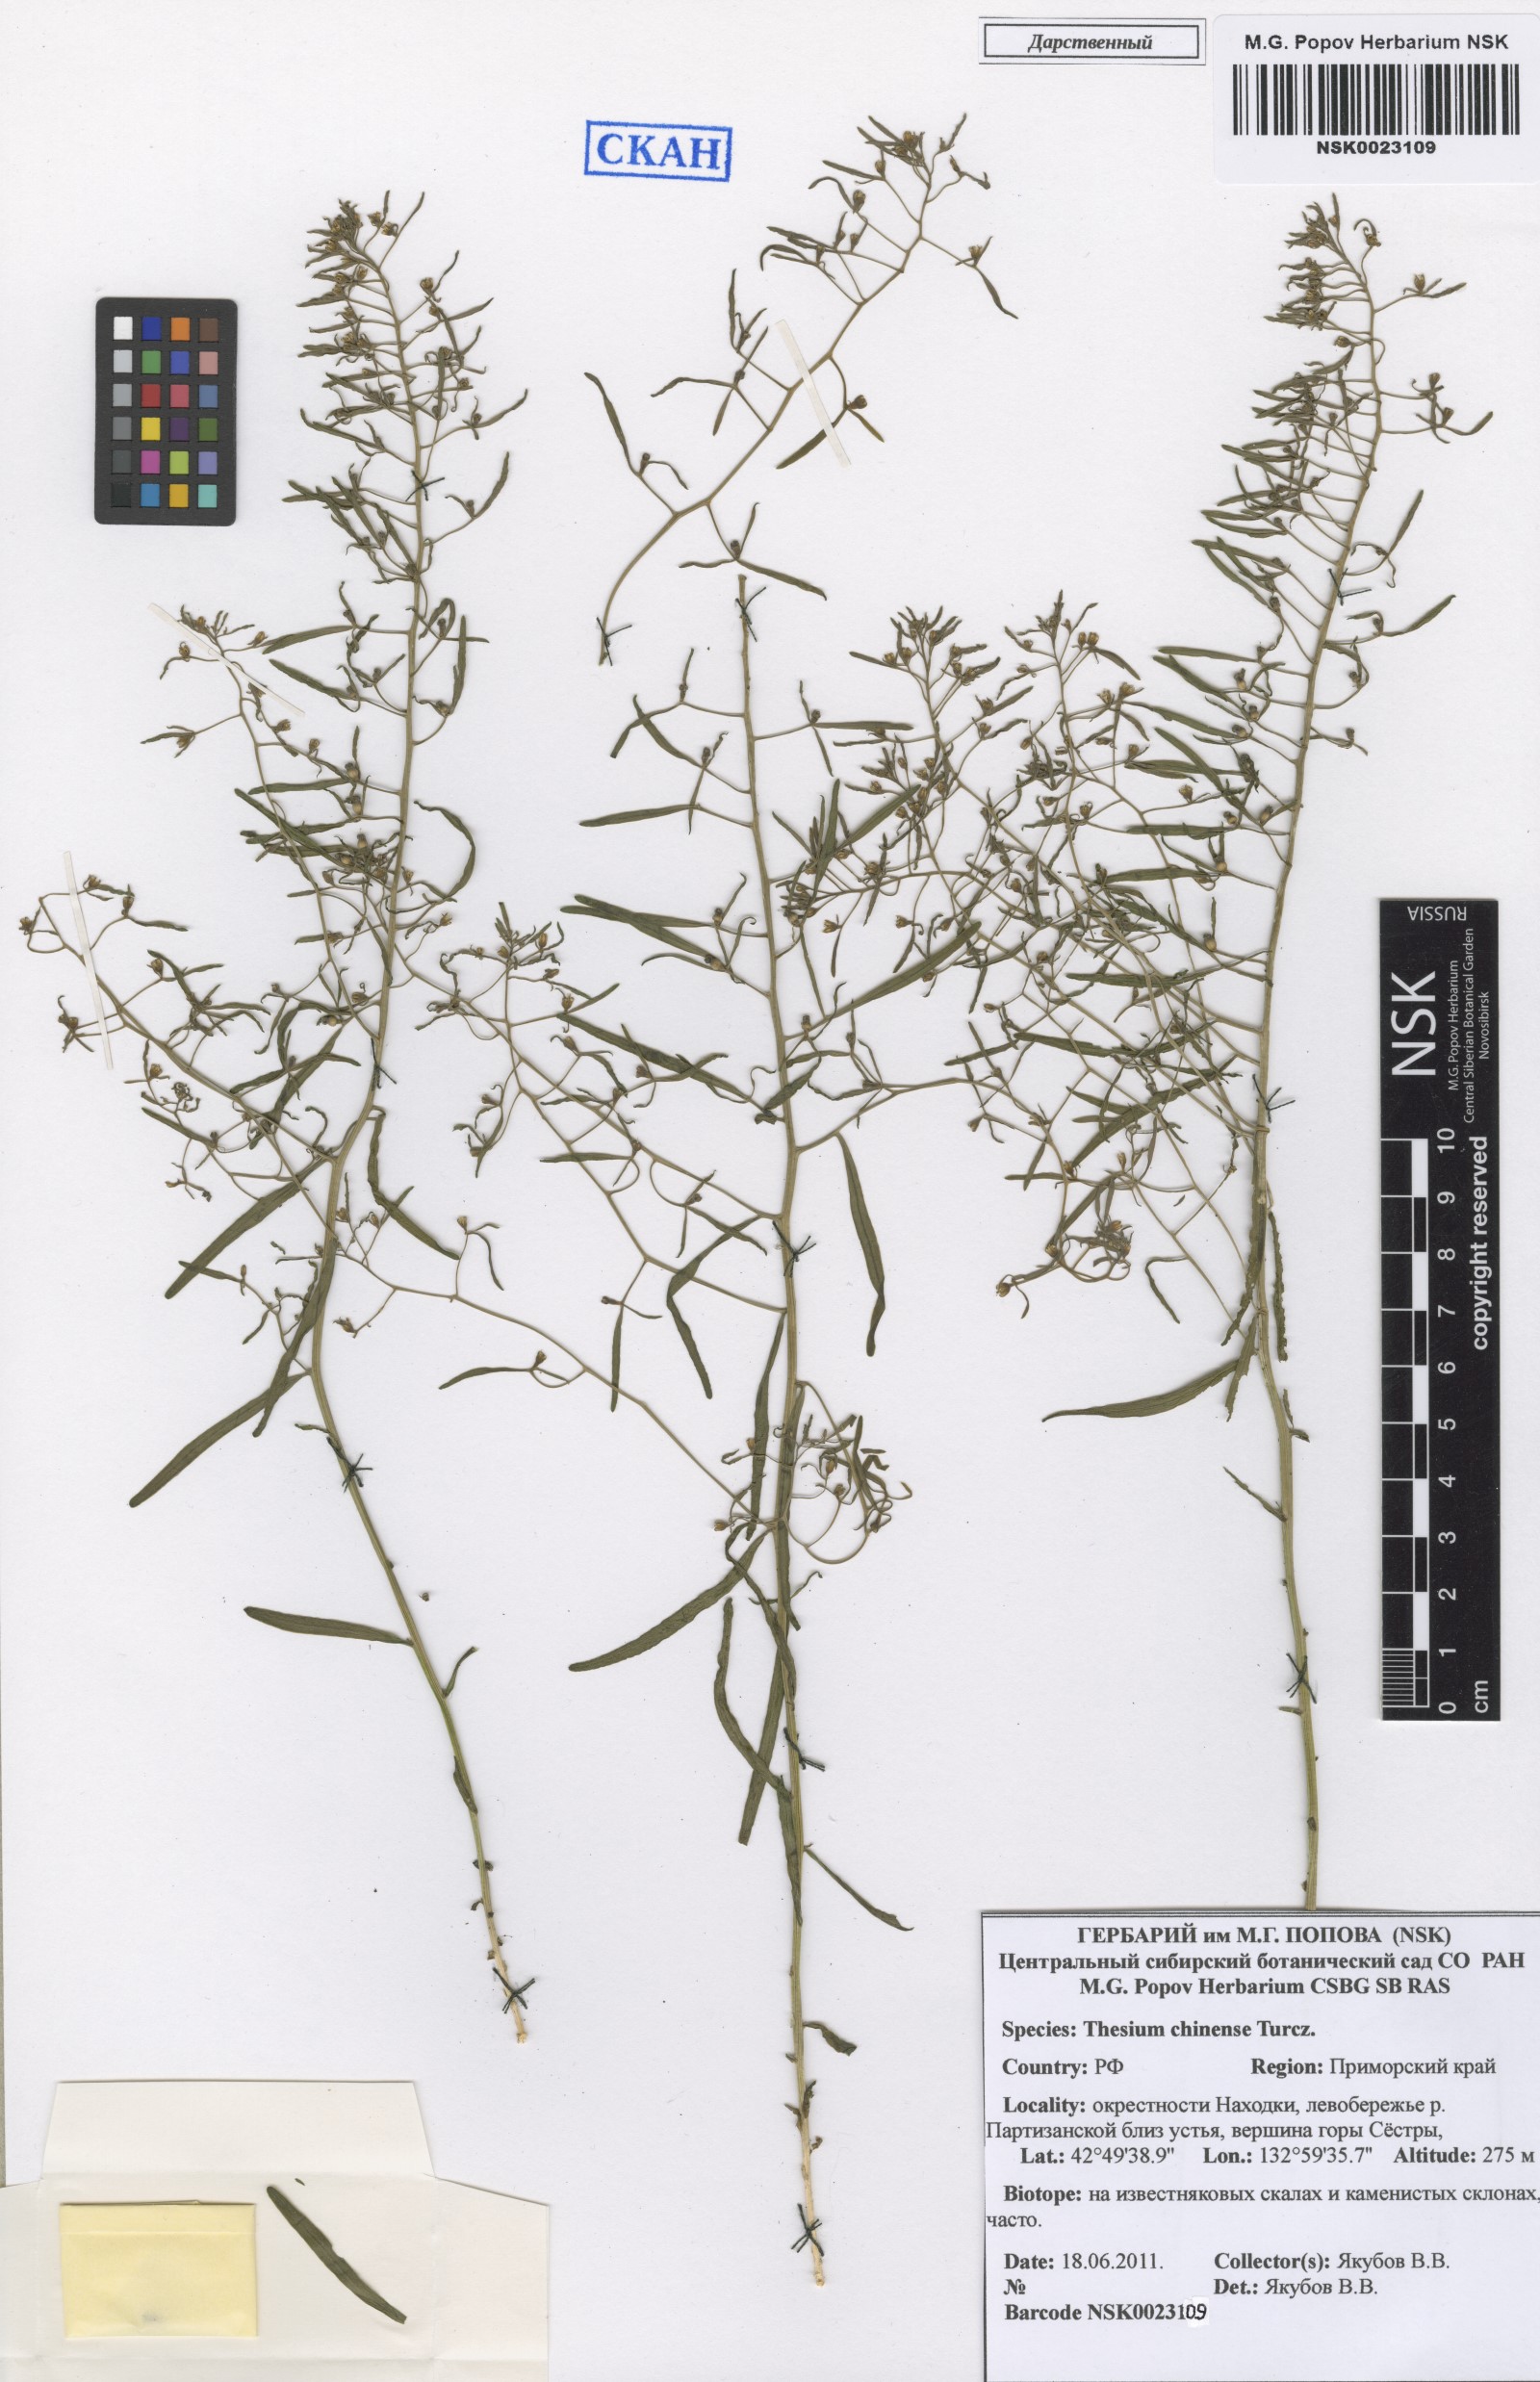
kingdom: Plantae
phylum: Tracheophyta
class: Magnoliopsida
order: Santalales
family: Thesiaceae
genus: Thesium
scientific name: Thesium chinense
